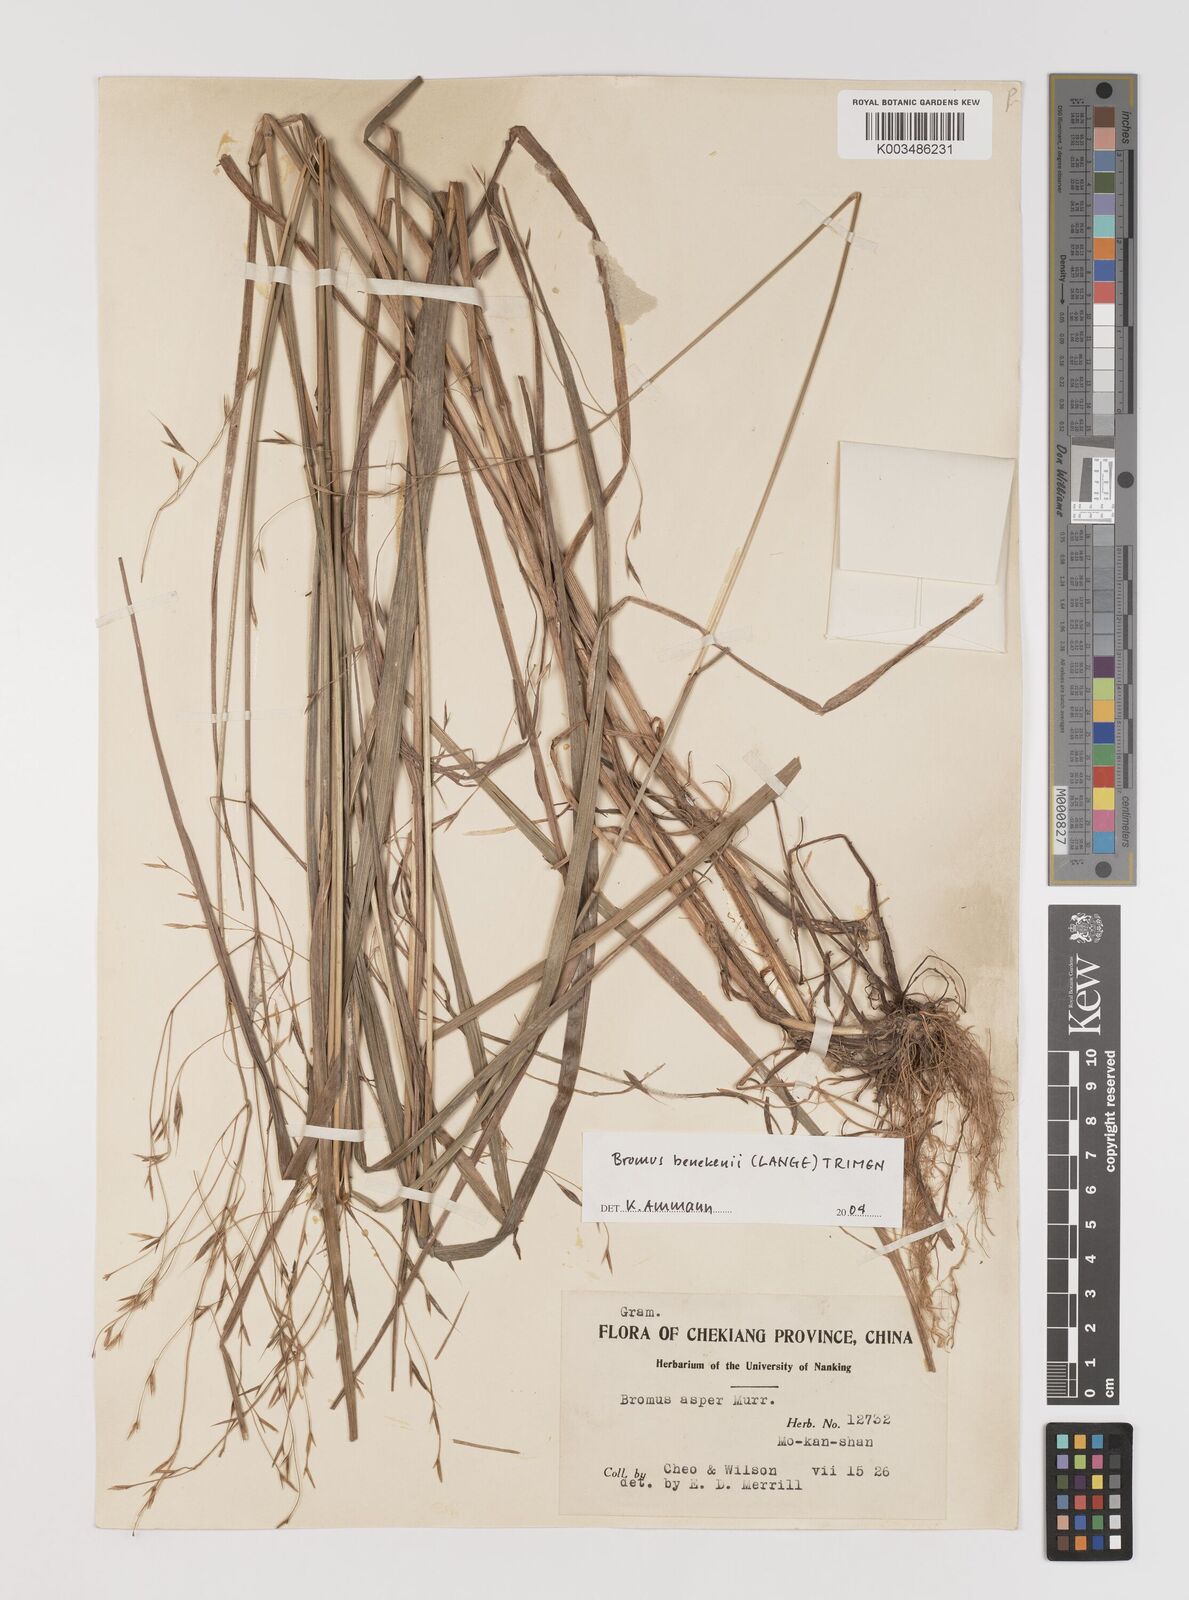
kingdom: Plantae
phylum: Tracheophyta
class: Liliopsida
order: Poales
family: Poaceae
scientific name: Poaceae
